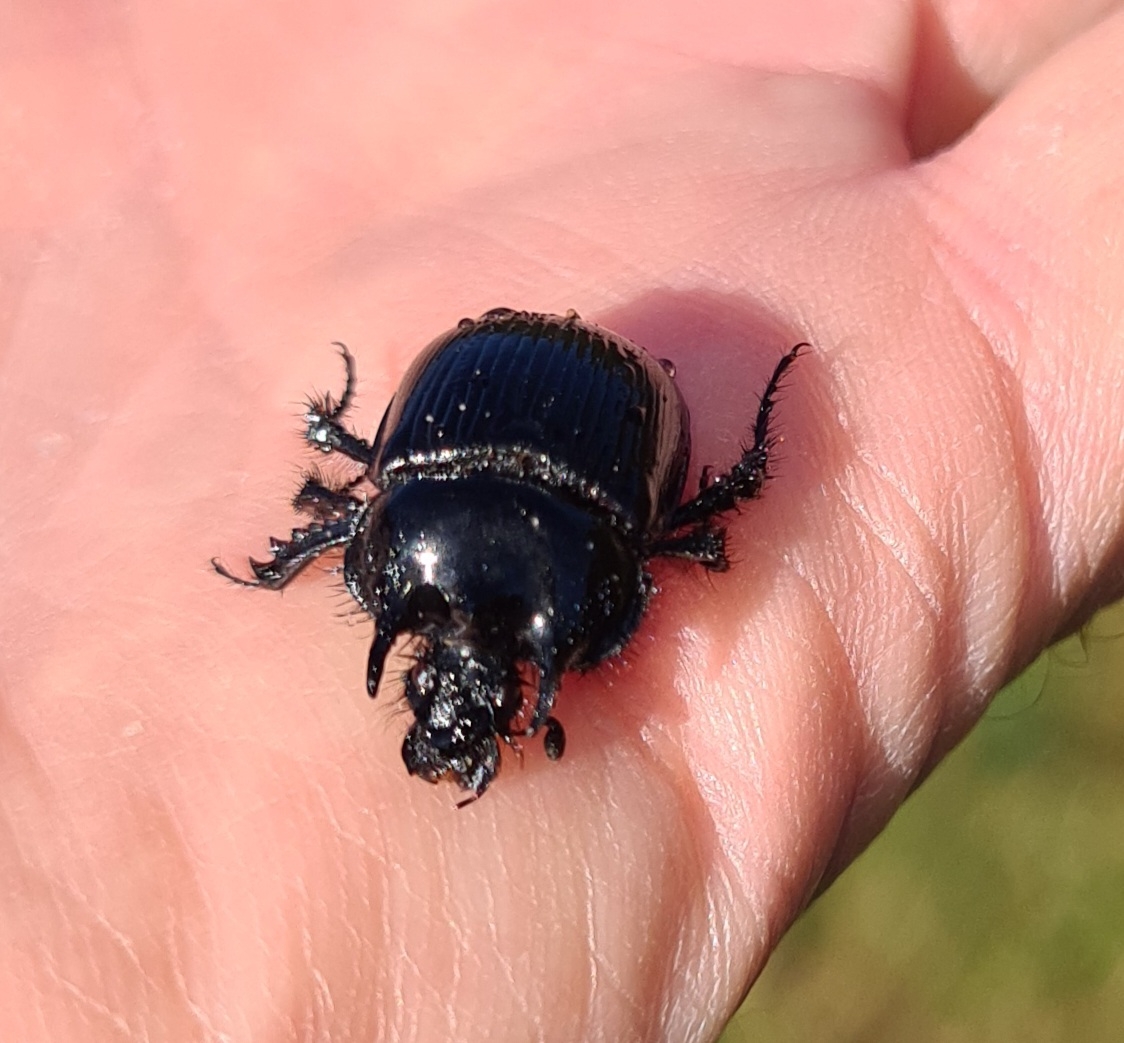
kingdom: Animalia
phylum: Arthropoda
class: Insecta
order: Coleoptera
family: Geotrupidae
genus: Typhaeus
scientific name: Typhaeus typhoeus
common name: Trehornet skarnbasse
